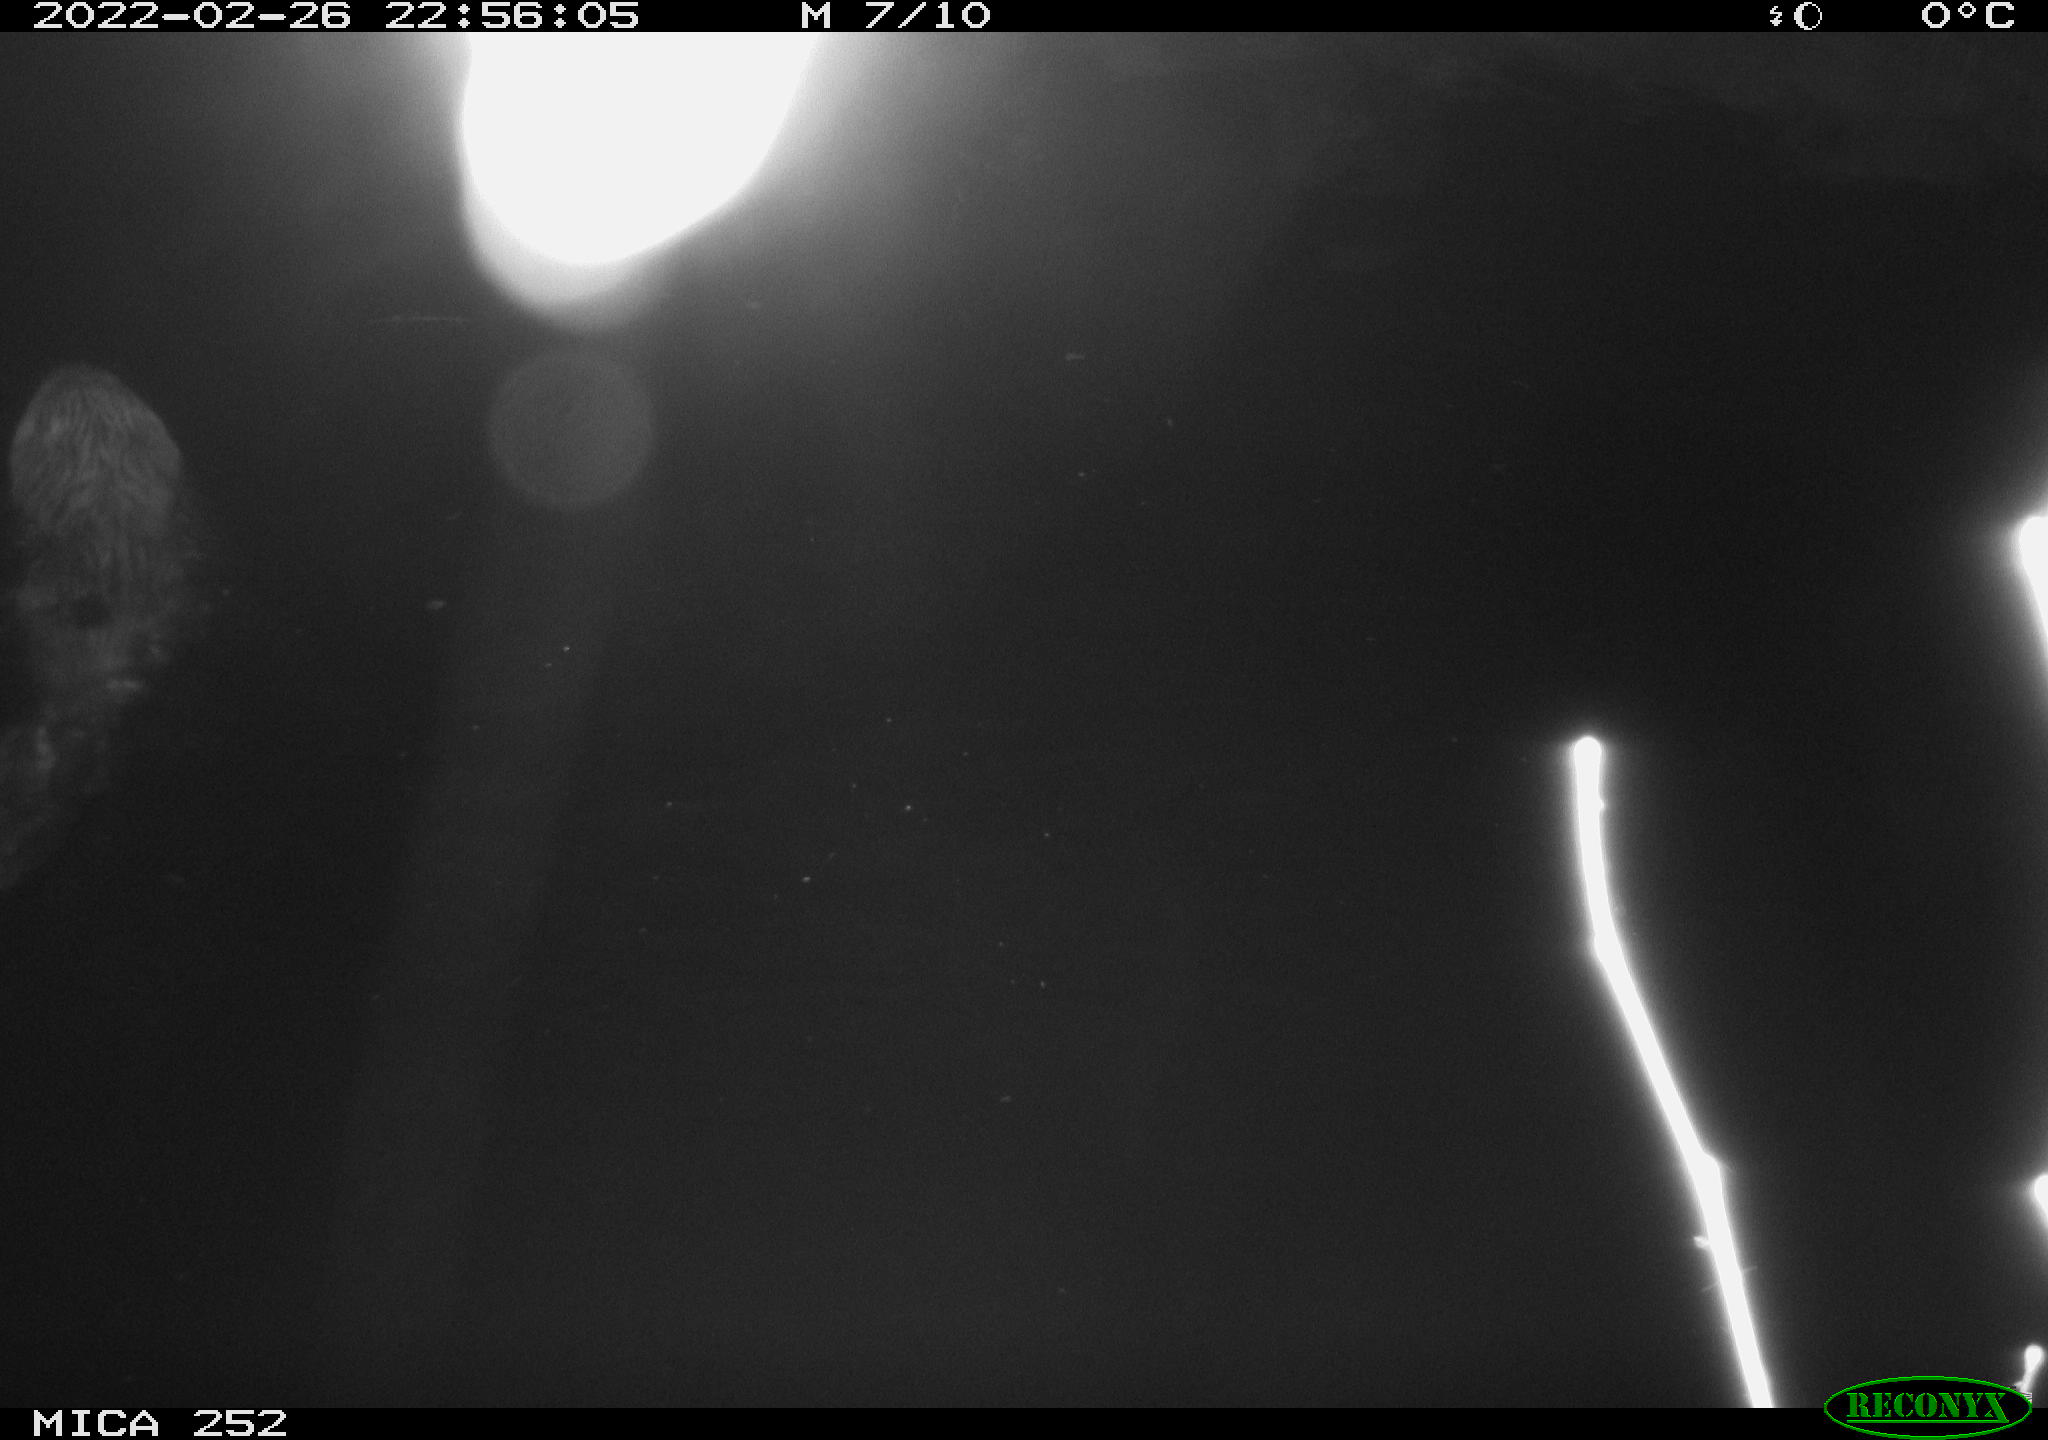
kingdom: Animalia
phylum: Chordata
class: Mammalia
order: Rodentia
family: Castoridae
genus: Castor
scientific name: Castor fiber
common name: Eurasian beaver
